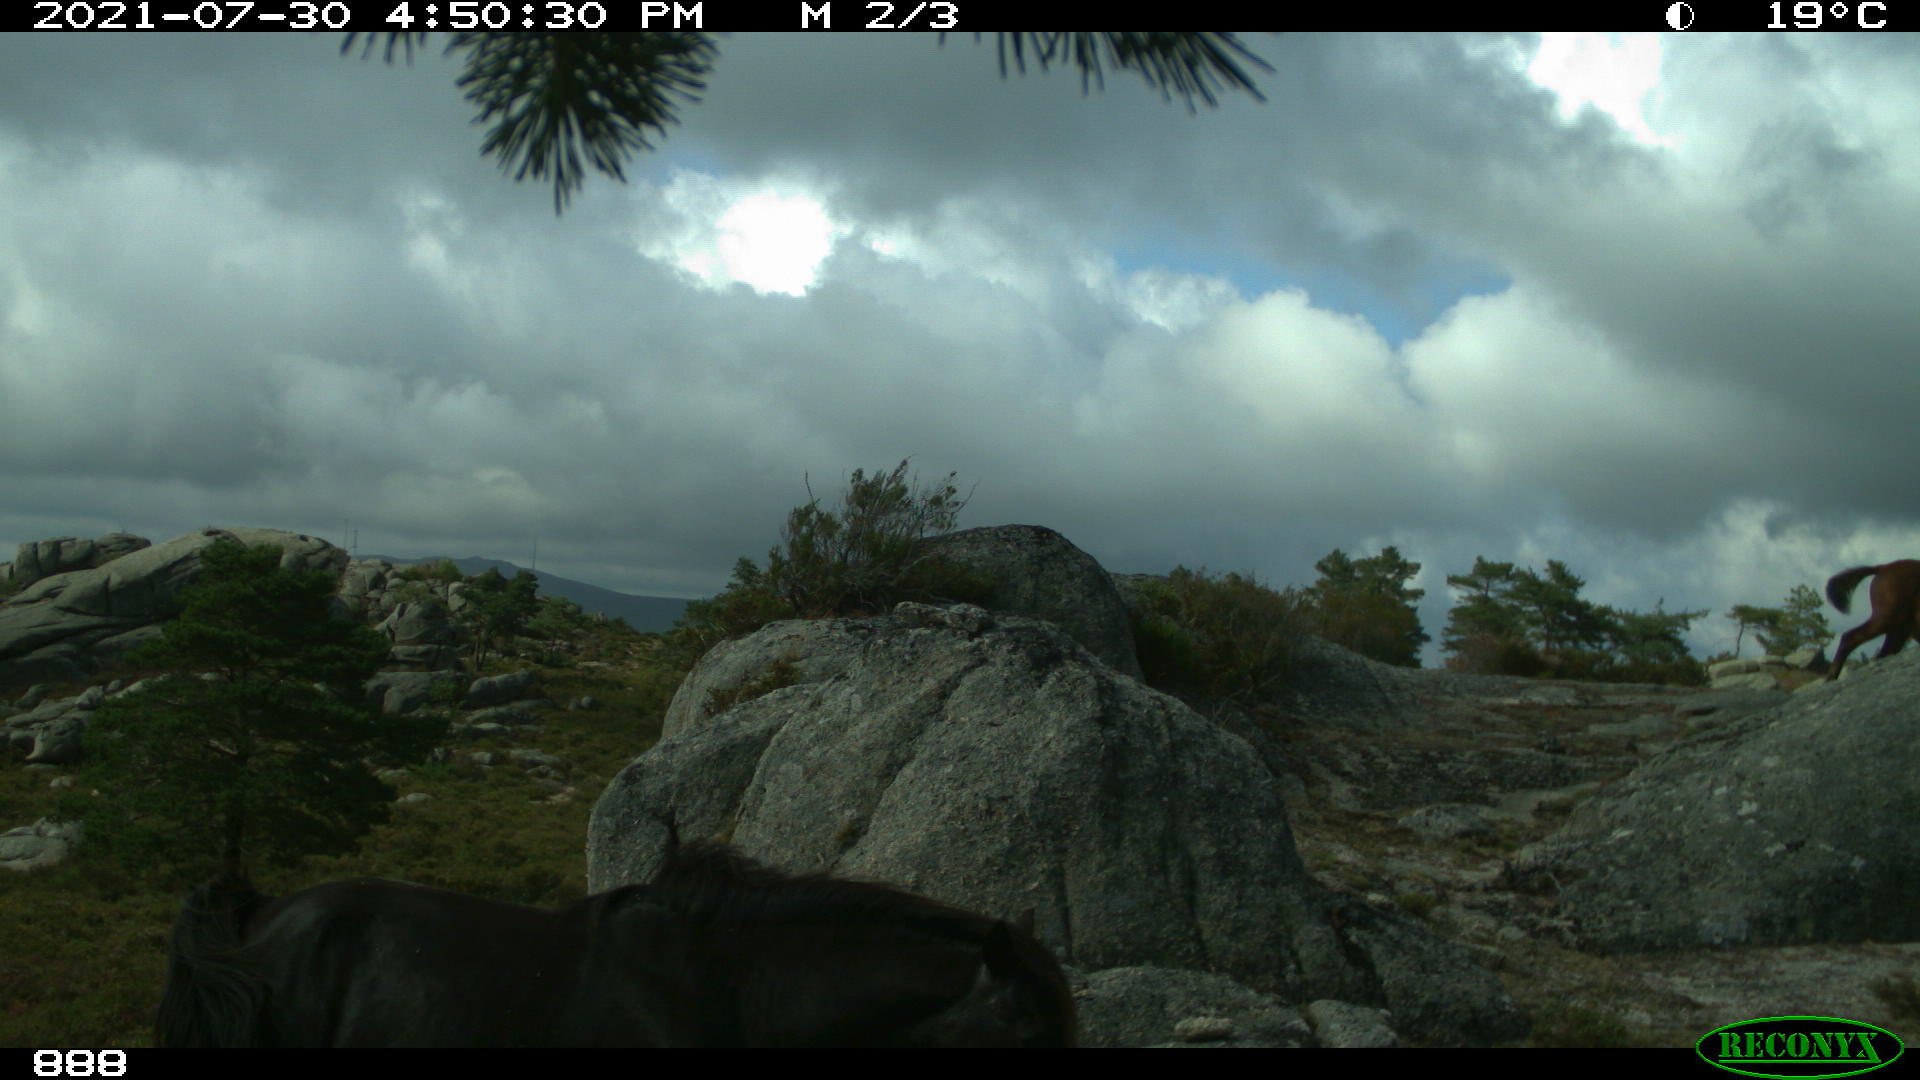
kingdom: Animalia
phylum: Chordata
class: Mammalia
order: Perissodactyla
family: Equidae
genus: Equus
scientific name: Equus caballus
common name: Horse
